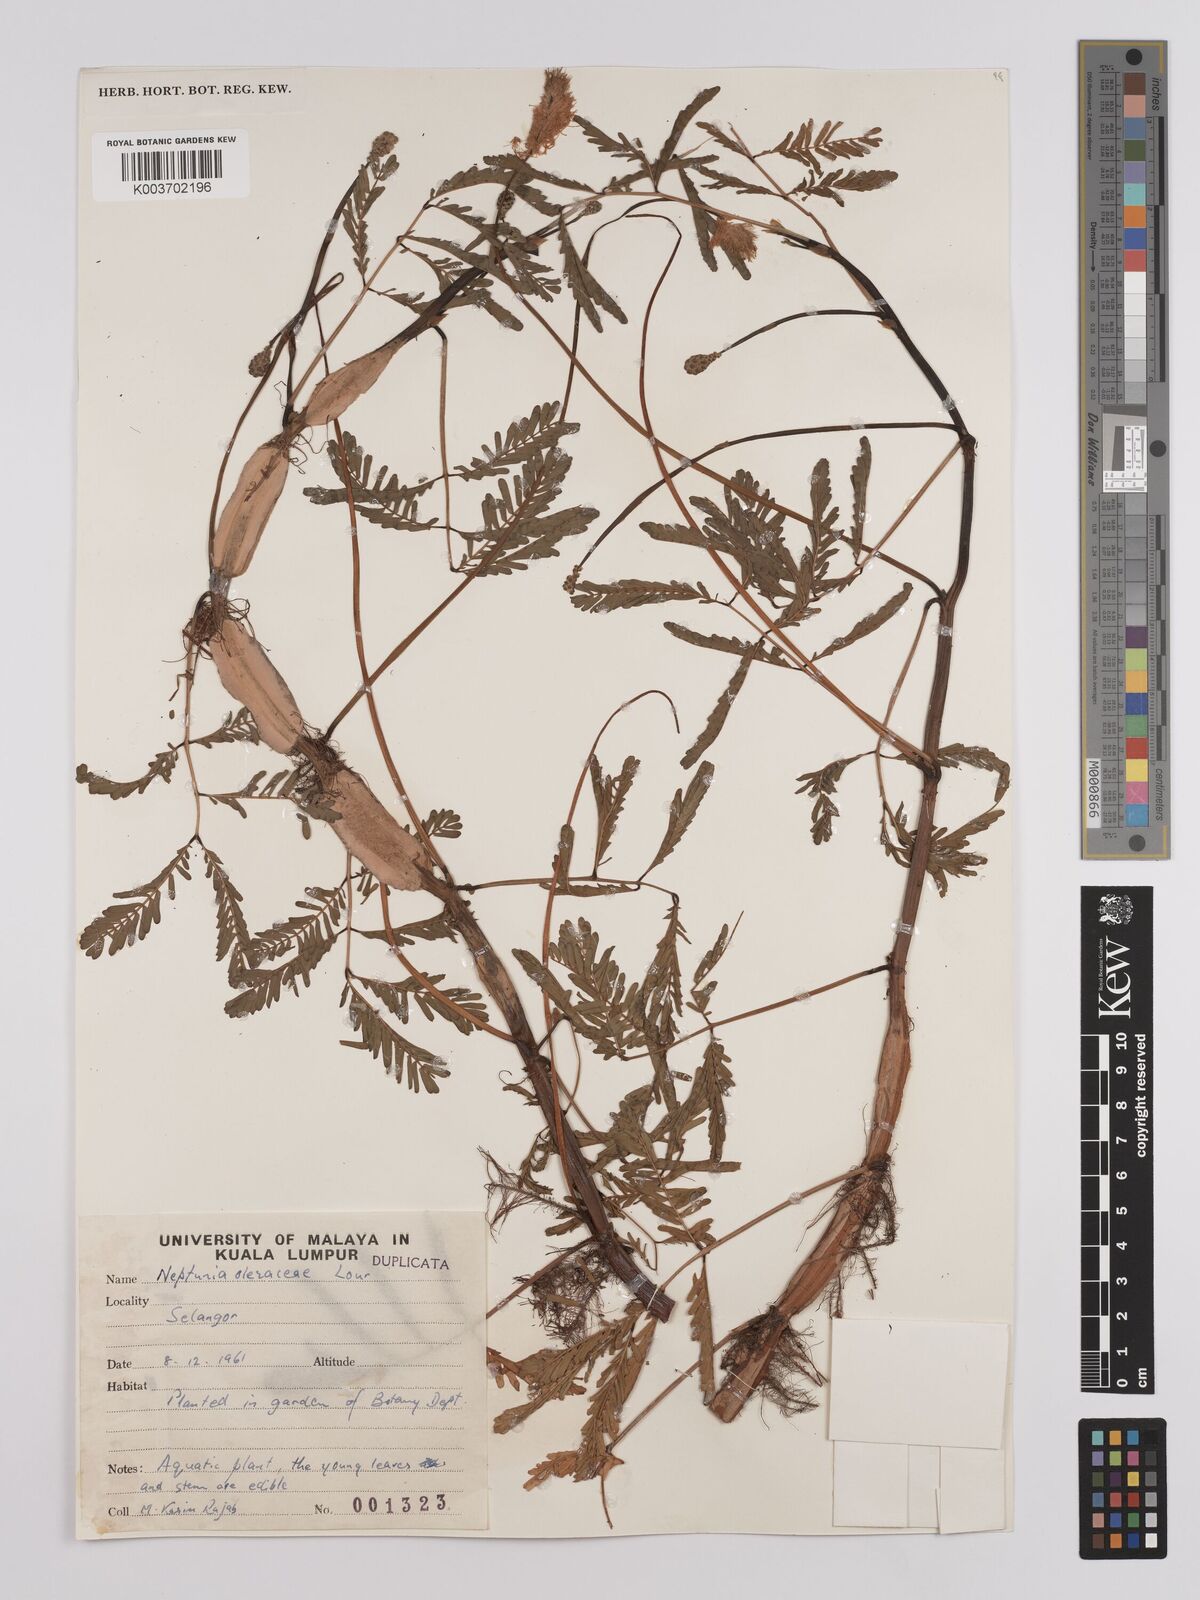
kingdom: Plantae
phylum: Tracheophyta
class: Magnoliopsida
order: Fabales
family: Fabaceae
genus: Neptunia
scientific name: Neptunia prostrata
